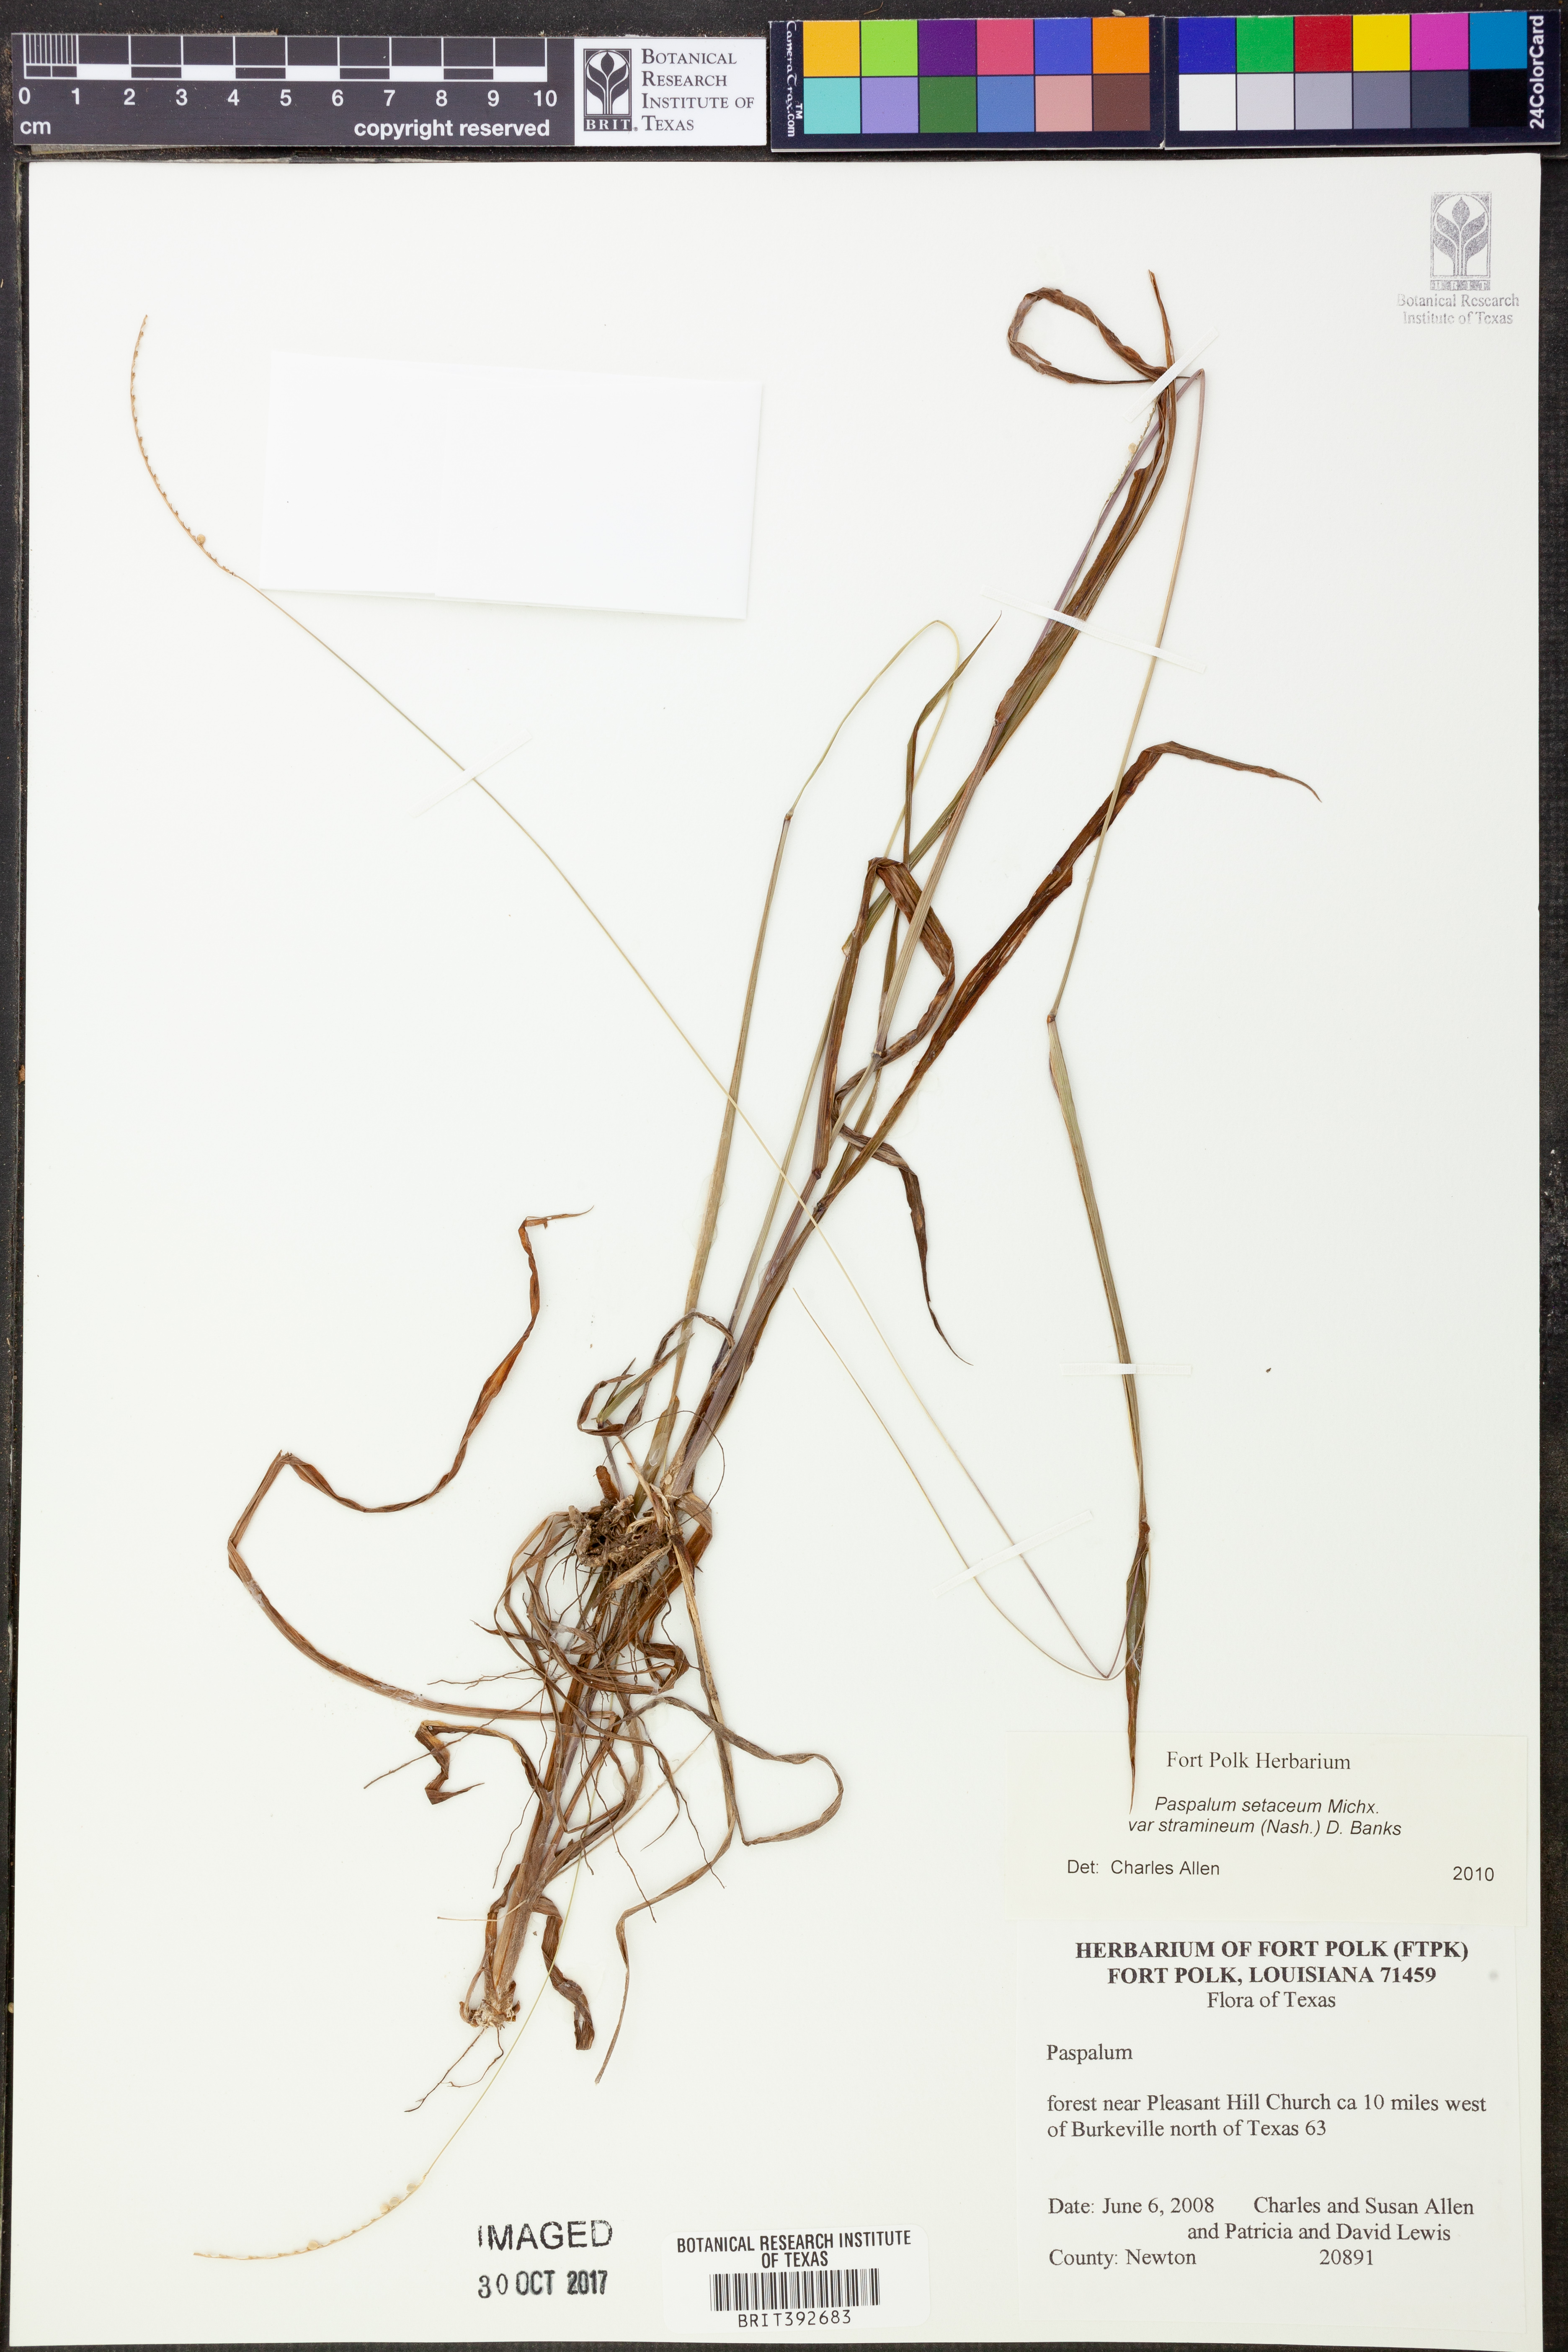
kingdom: Plantae
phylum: Tracheophyta
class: Liliopsida
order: Poales
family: Poaceae
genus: Paspalum
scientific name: Paspalum setaceum
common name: Slender paspalum
